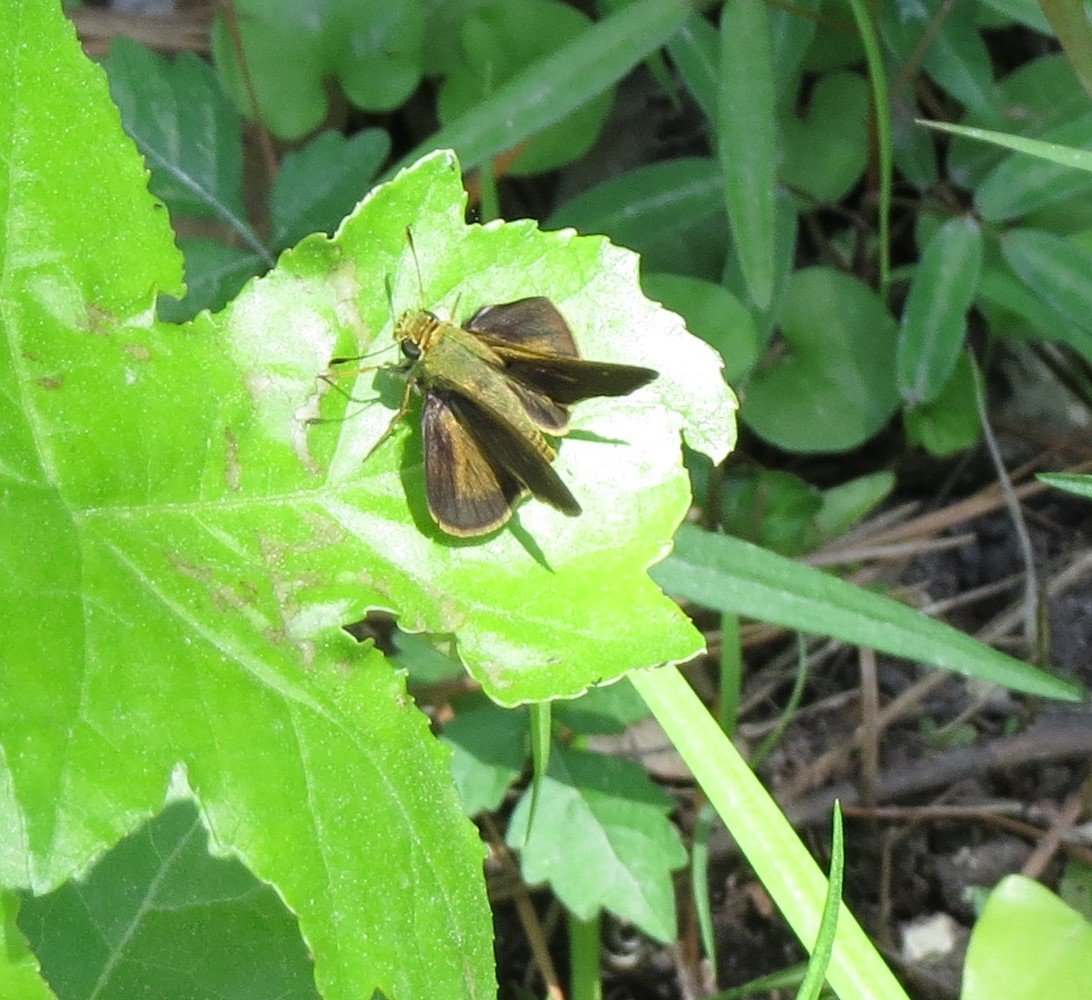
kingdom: Animalia
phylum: Arthropoda
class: Insecta
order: Lepidoptera
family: Hesperiidae
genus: Nastra
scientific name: Nastra lherminier
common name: Swarthy Skipper
